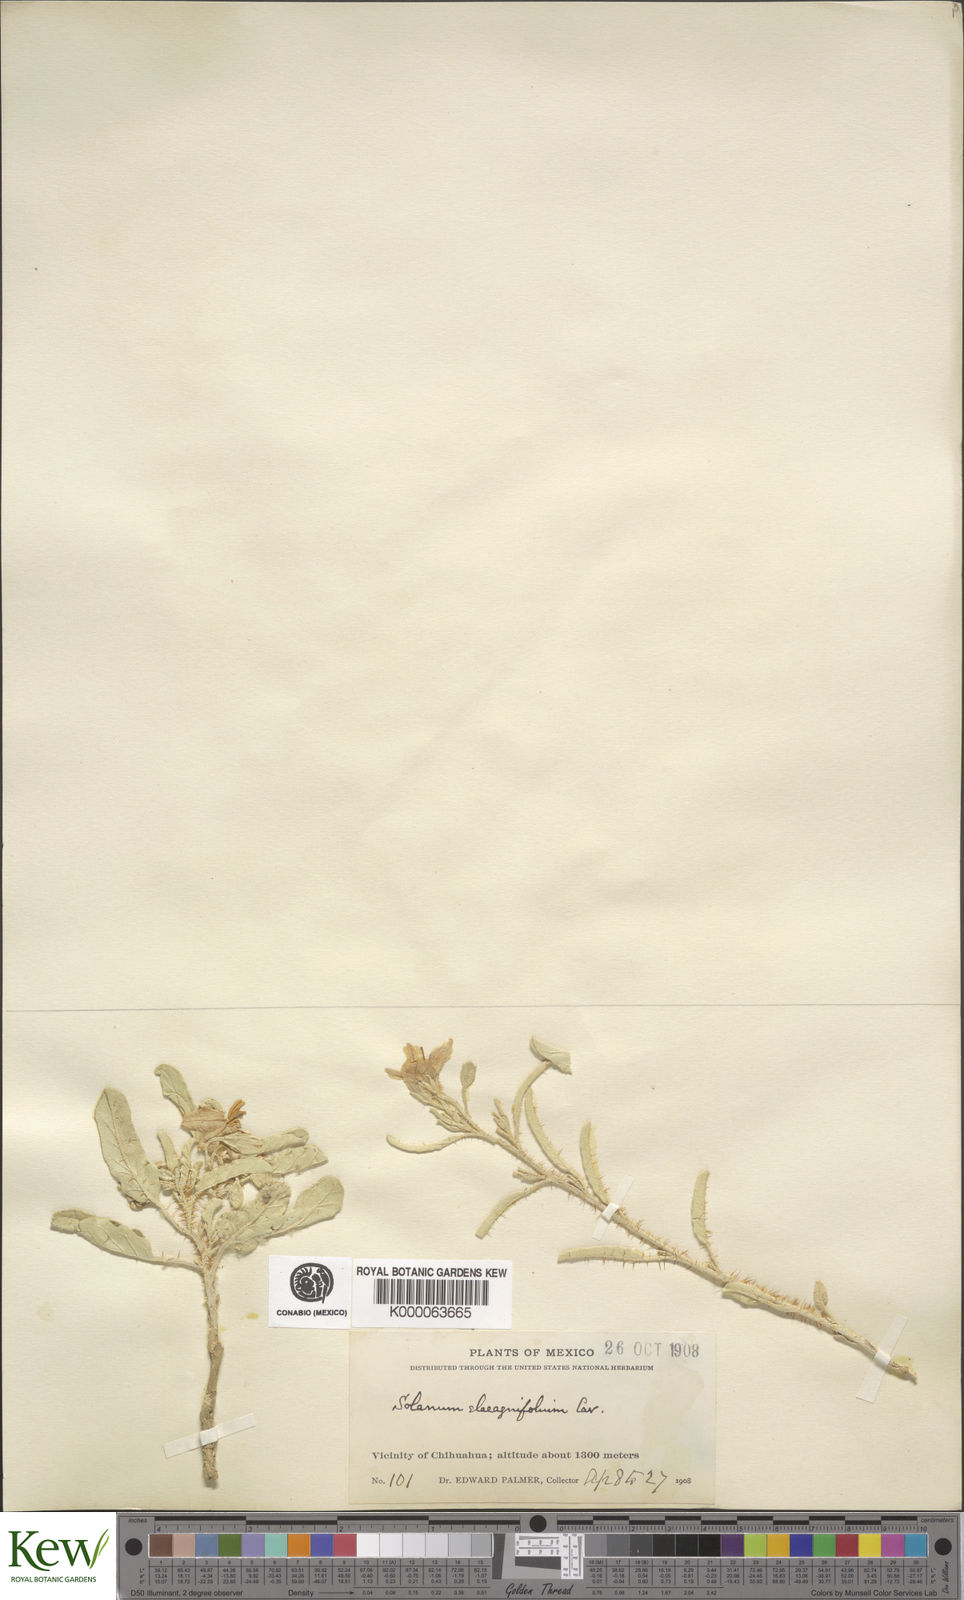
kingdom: Plantae
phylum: Tracheophyta
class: Magnoliopsida
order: Solanales
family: Solanaceae
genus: Solanum
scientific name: Solanum elaeagnifolium
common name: Silverleaf nightshade
